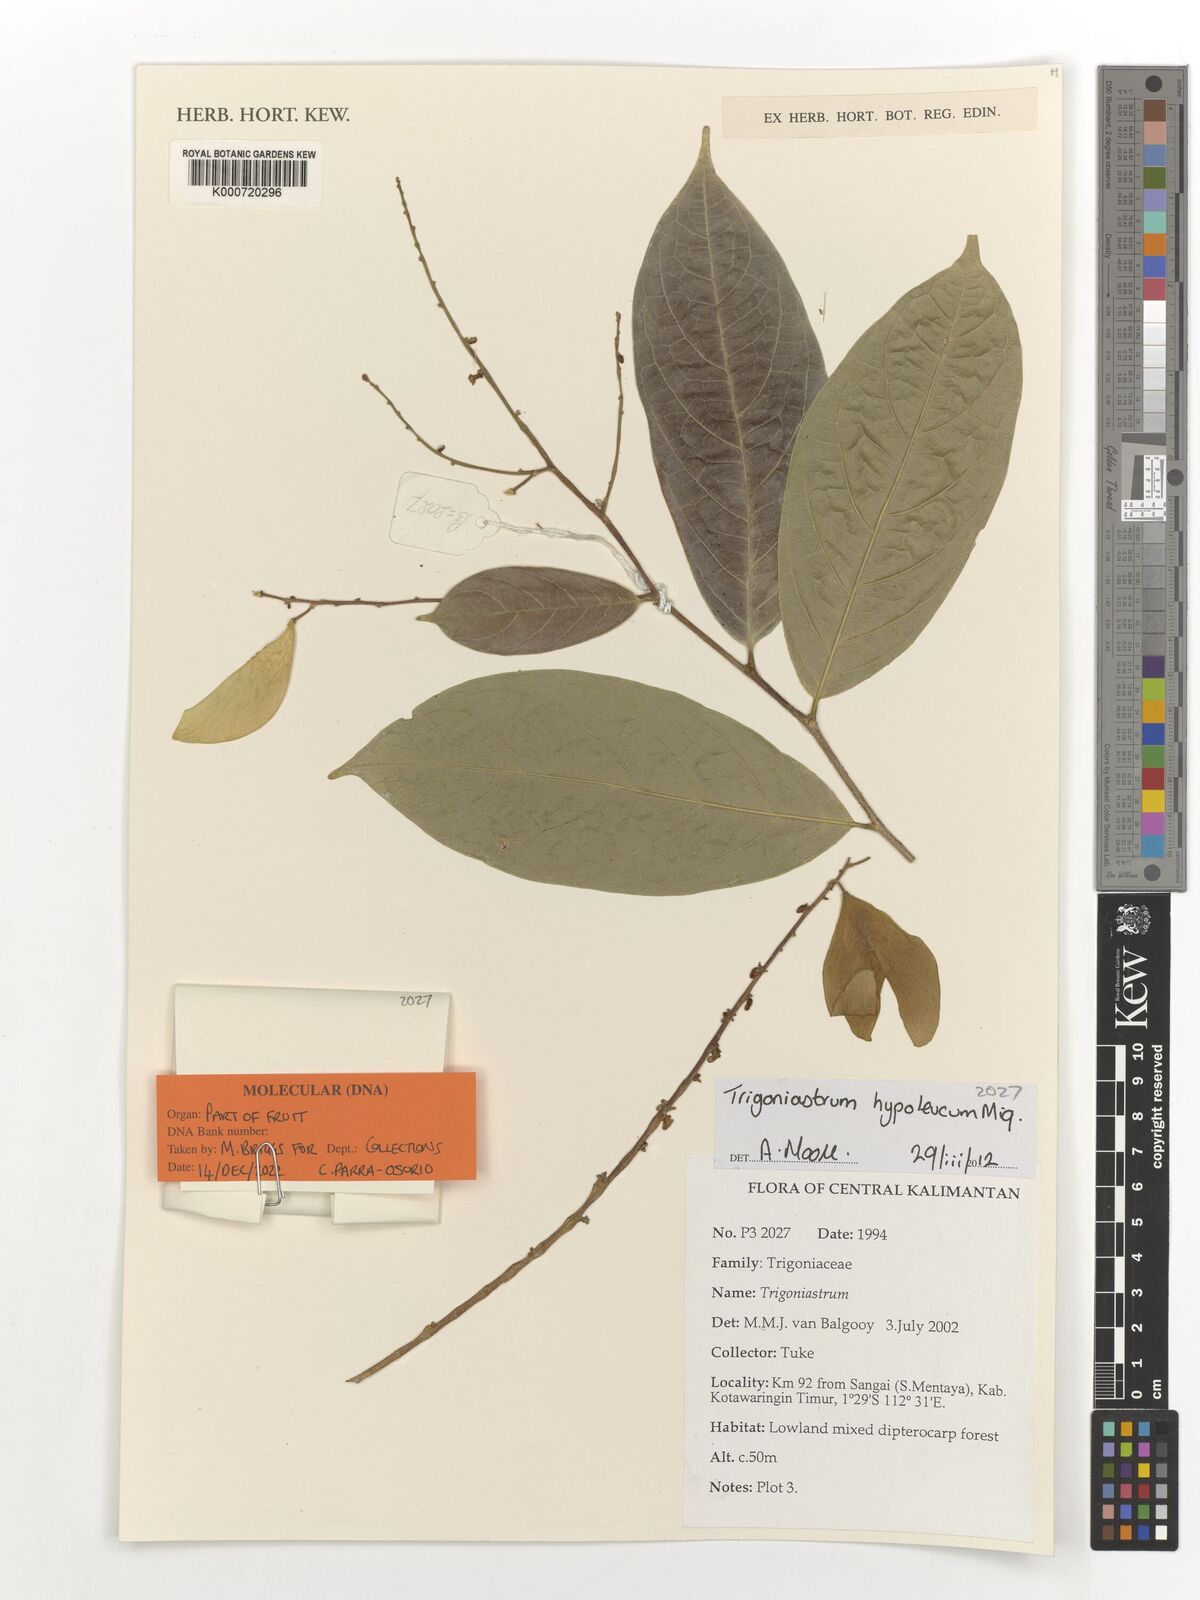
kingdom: Plantae
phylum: Tracheophyta
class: Magnoliopsida
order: Malpighiales
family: Trigoniaceae
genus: Trigoniastrum
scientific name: Trigoniastrum hypoleucum
